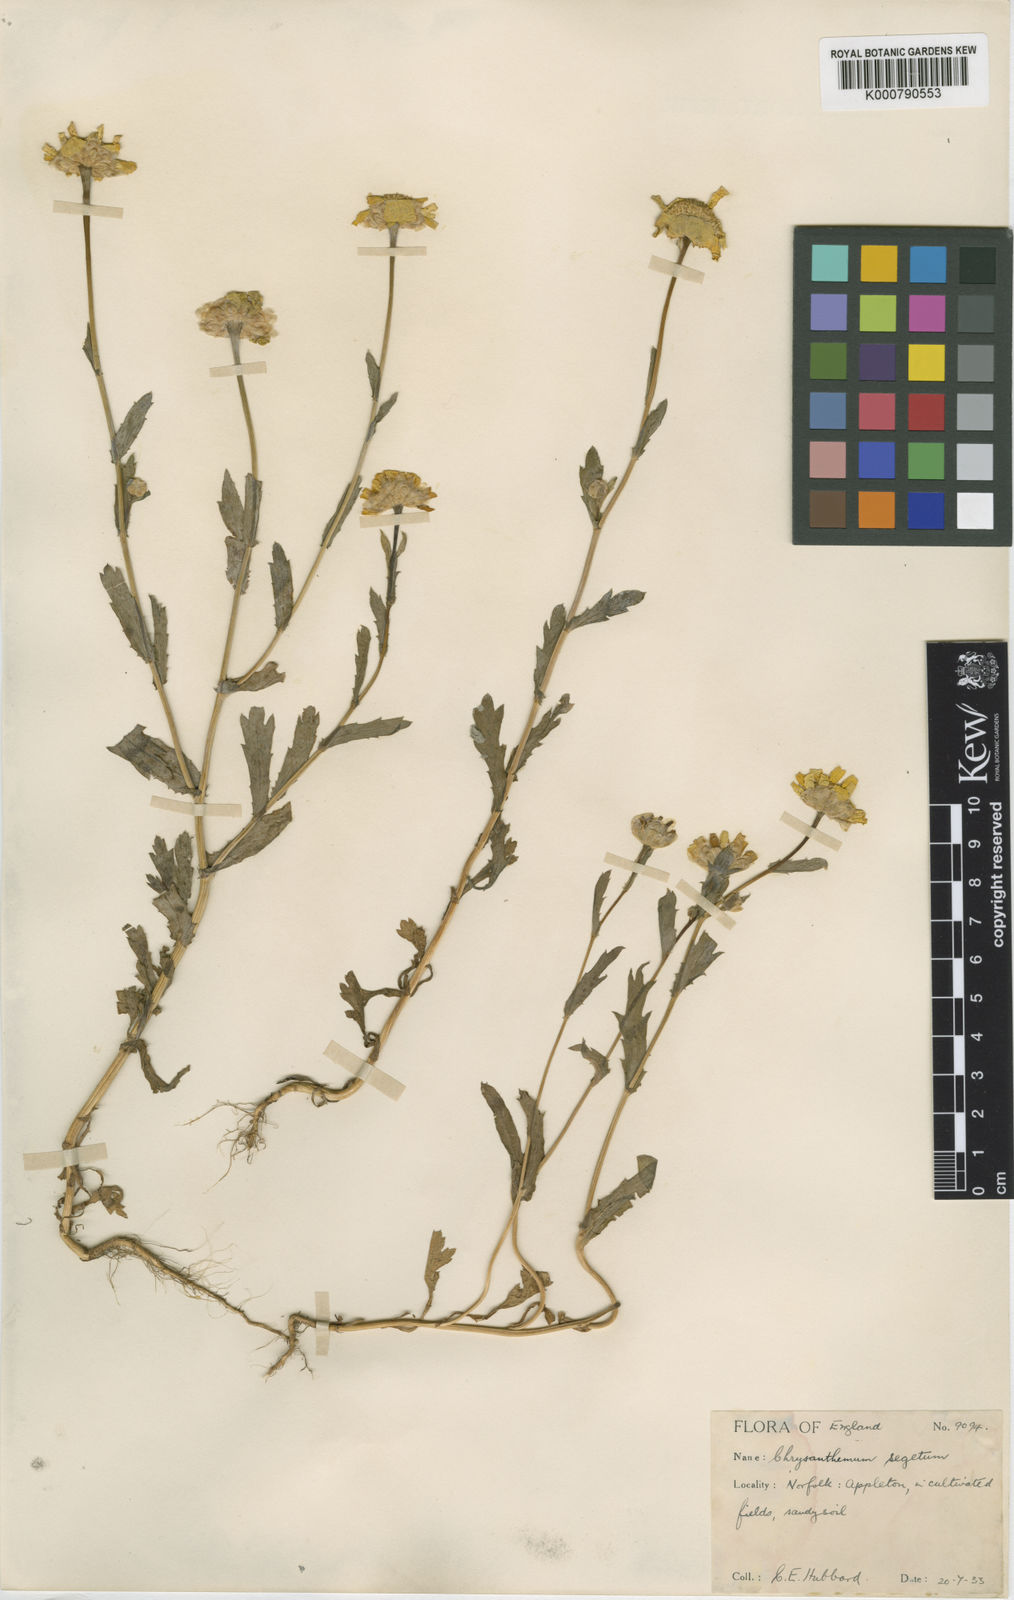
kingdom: Plantae
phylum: Tracheophyta
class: Magnoliopsida
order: Asterales
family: Asteraceae
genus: Glebionis
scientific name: Glebionis
